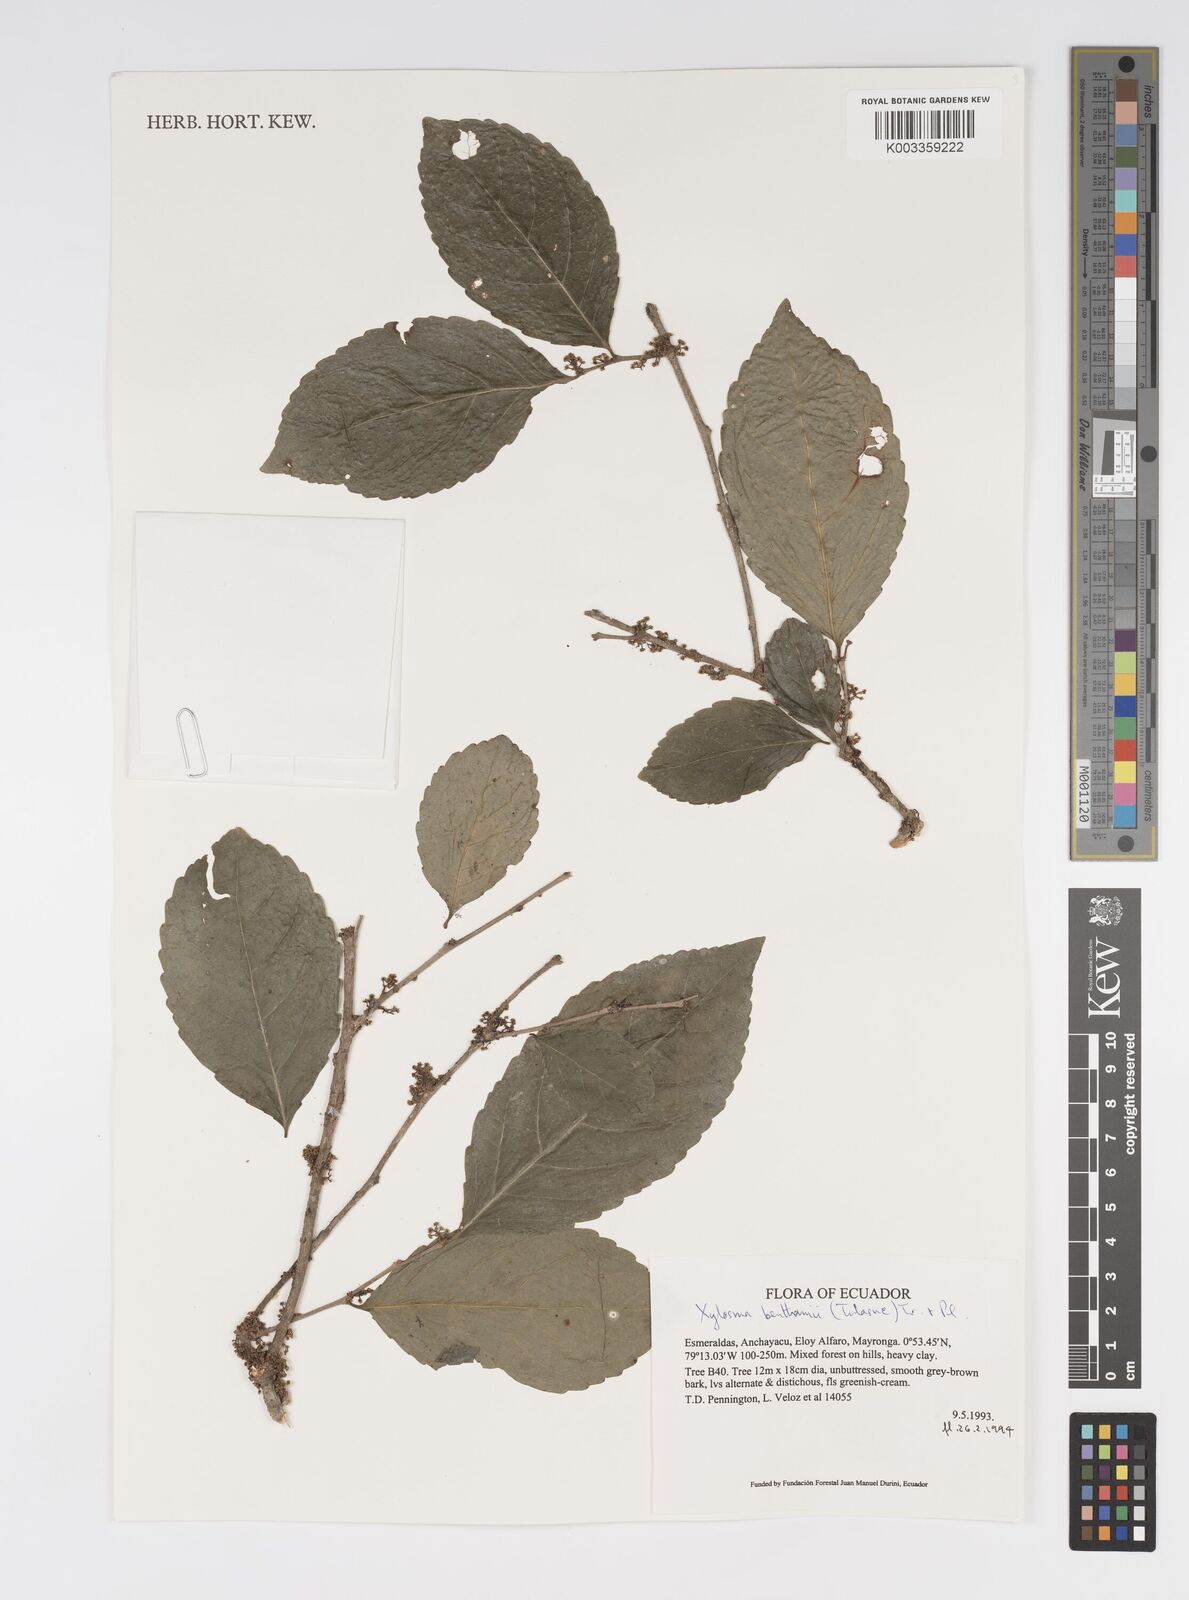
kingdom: Plantae
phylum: Tracheophyta
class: Magnoliopsida
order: Malpighiales
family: Salicaceae
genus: Xylosma
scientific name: Xylosma benthamii
